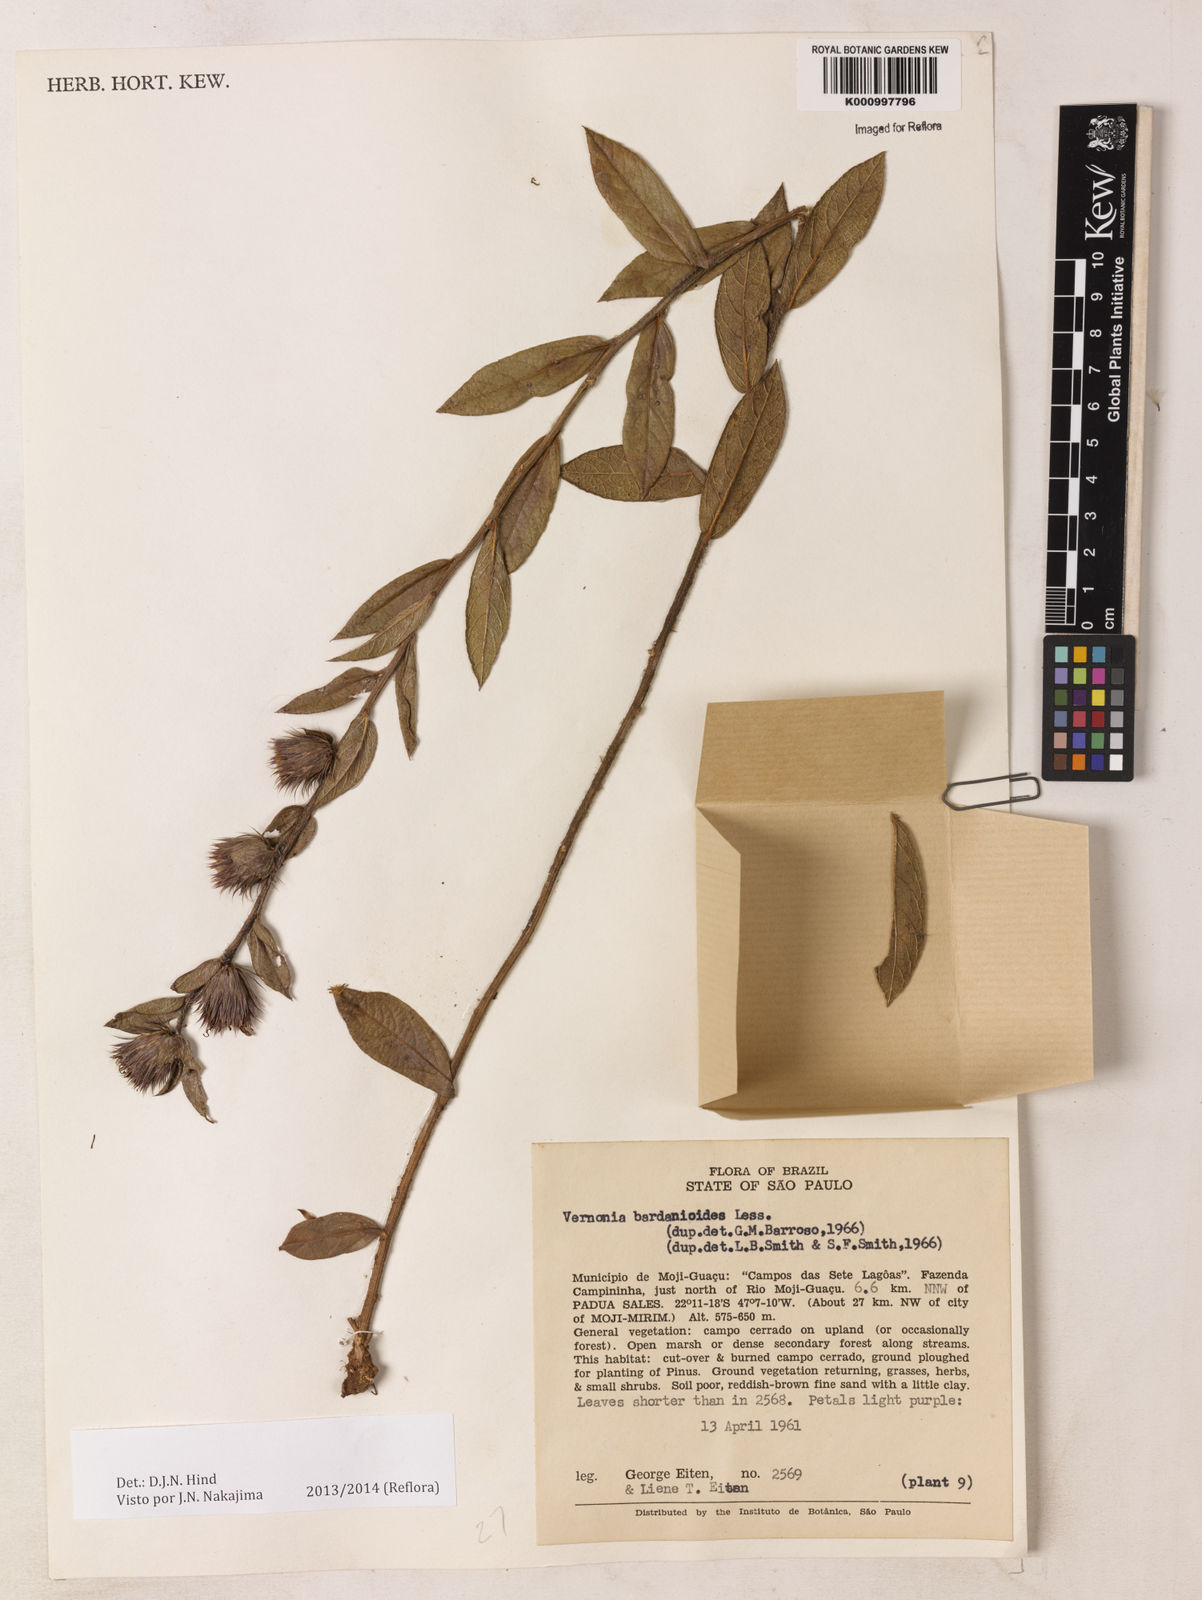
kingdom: Plantae
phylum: Tracheophyta
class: Magnoliopsida
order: Asterales
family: Asteraceae
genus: Lessingianthus
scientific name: Lessingianthus bardanioides
